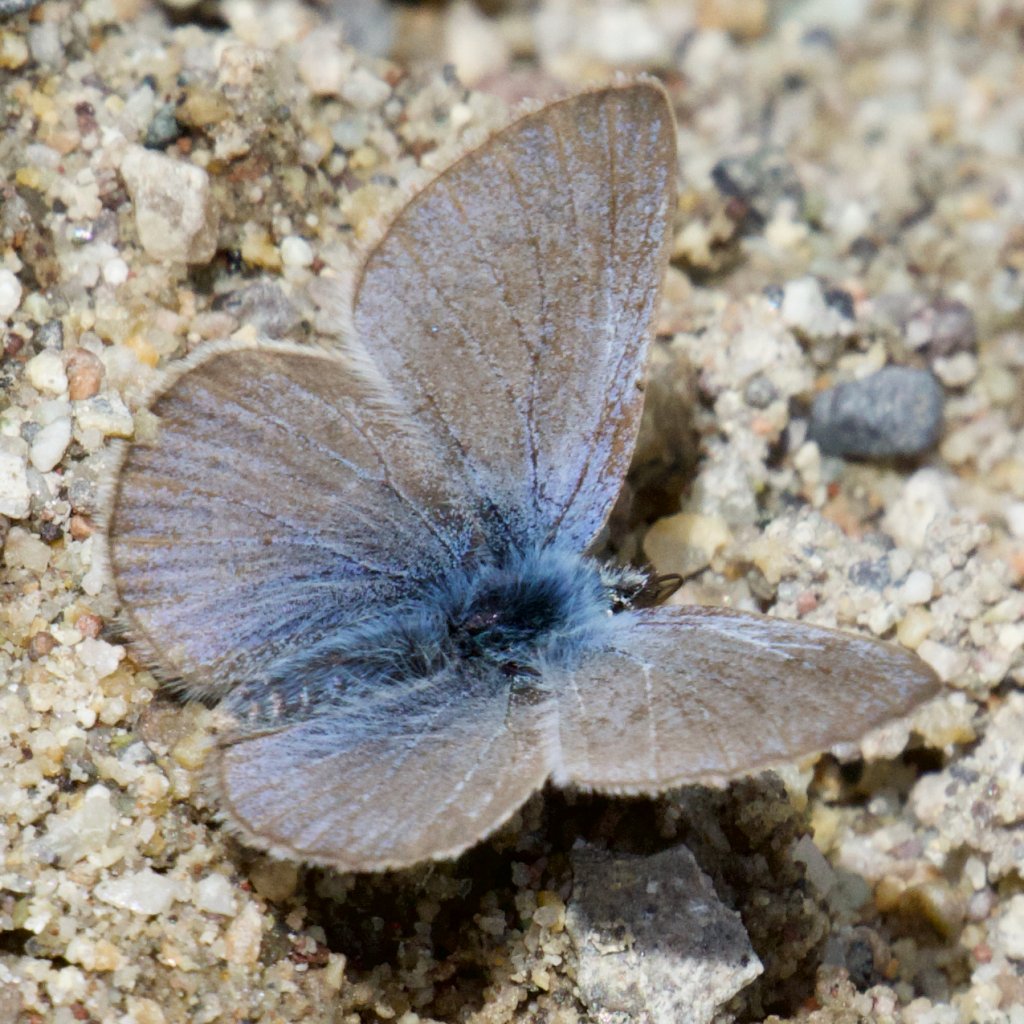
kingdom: Animalia
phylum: Arthropoda
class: Insecta
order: Lepidoptera
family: Lycaenidae
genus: Glaucopsyche
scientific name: Glaucopsyche lygdamus
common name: Silvery Blue
